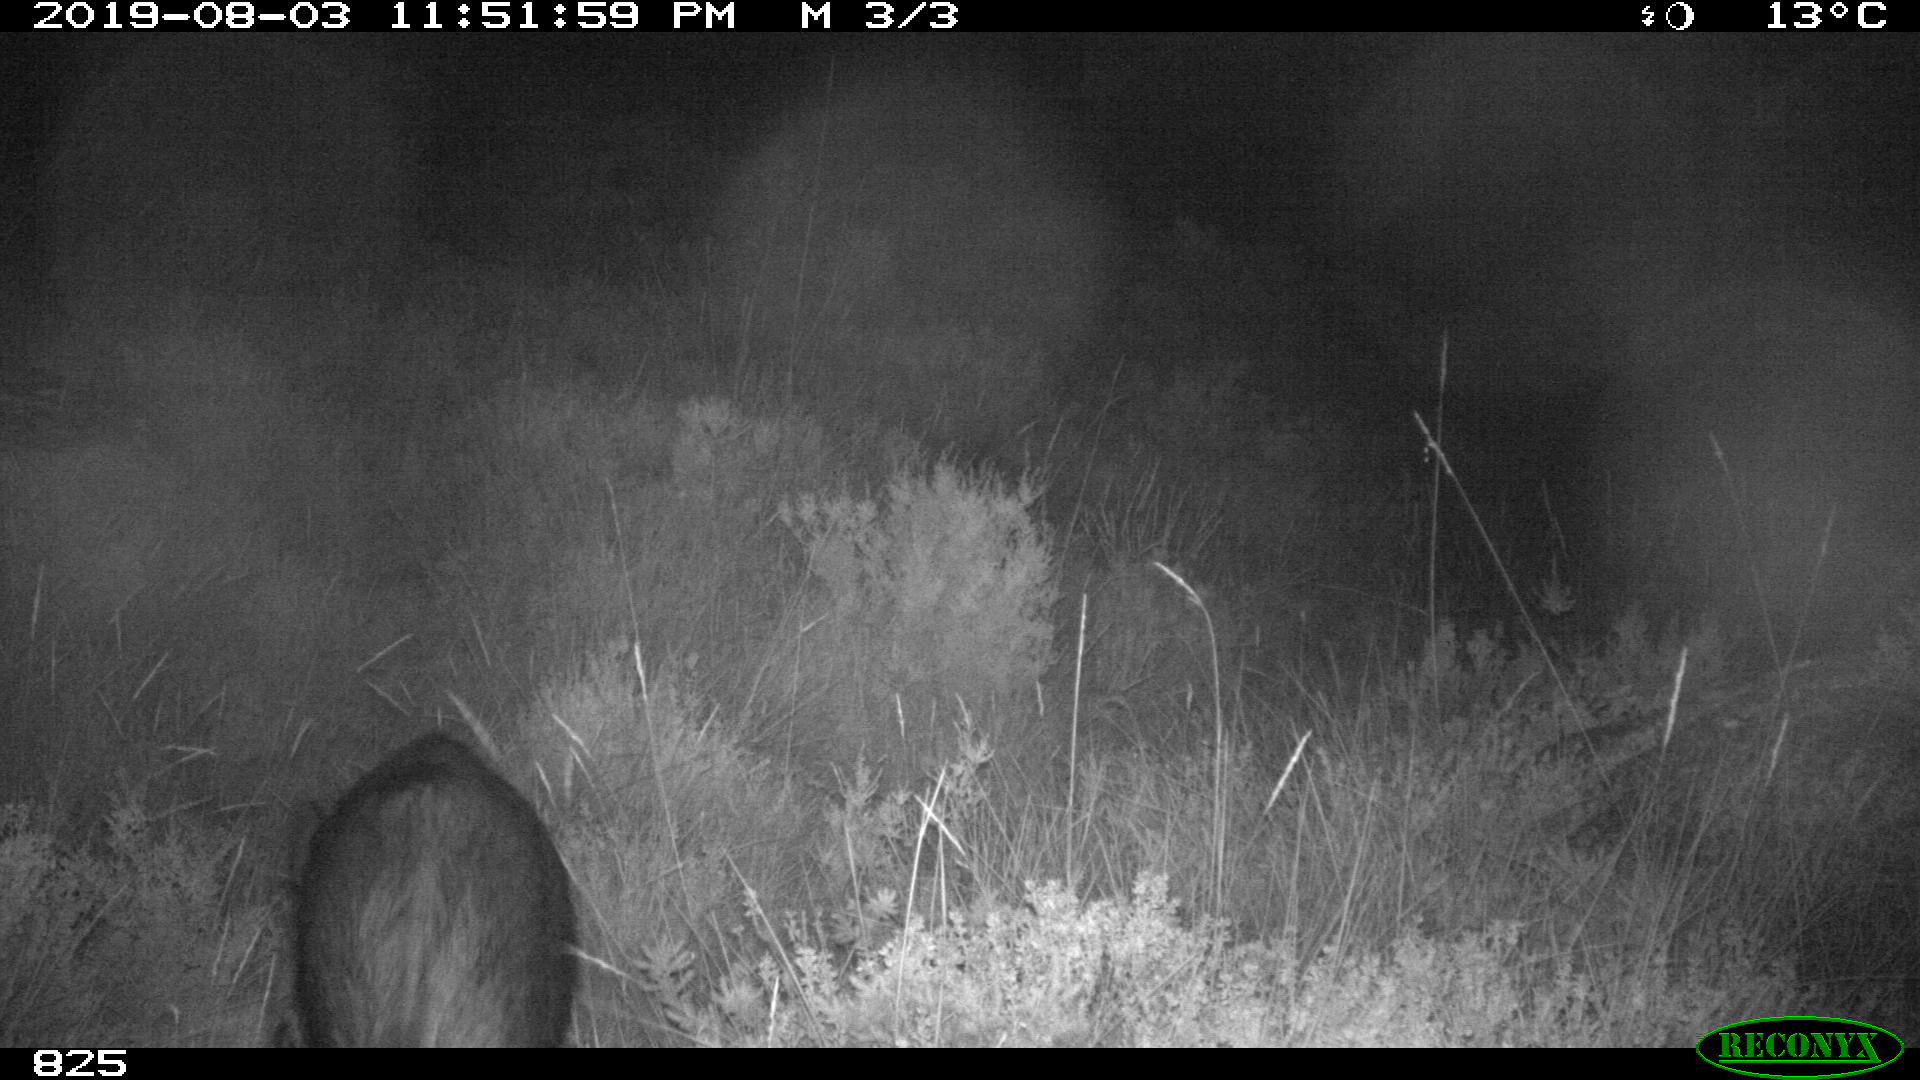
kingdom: Animalia
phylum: Chordata
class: Mammalia
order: Artiodactyla
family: Suidae
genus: Sus
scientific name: Sus scrofa
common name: Wild boar
